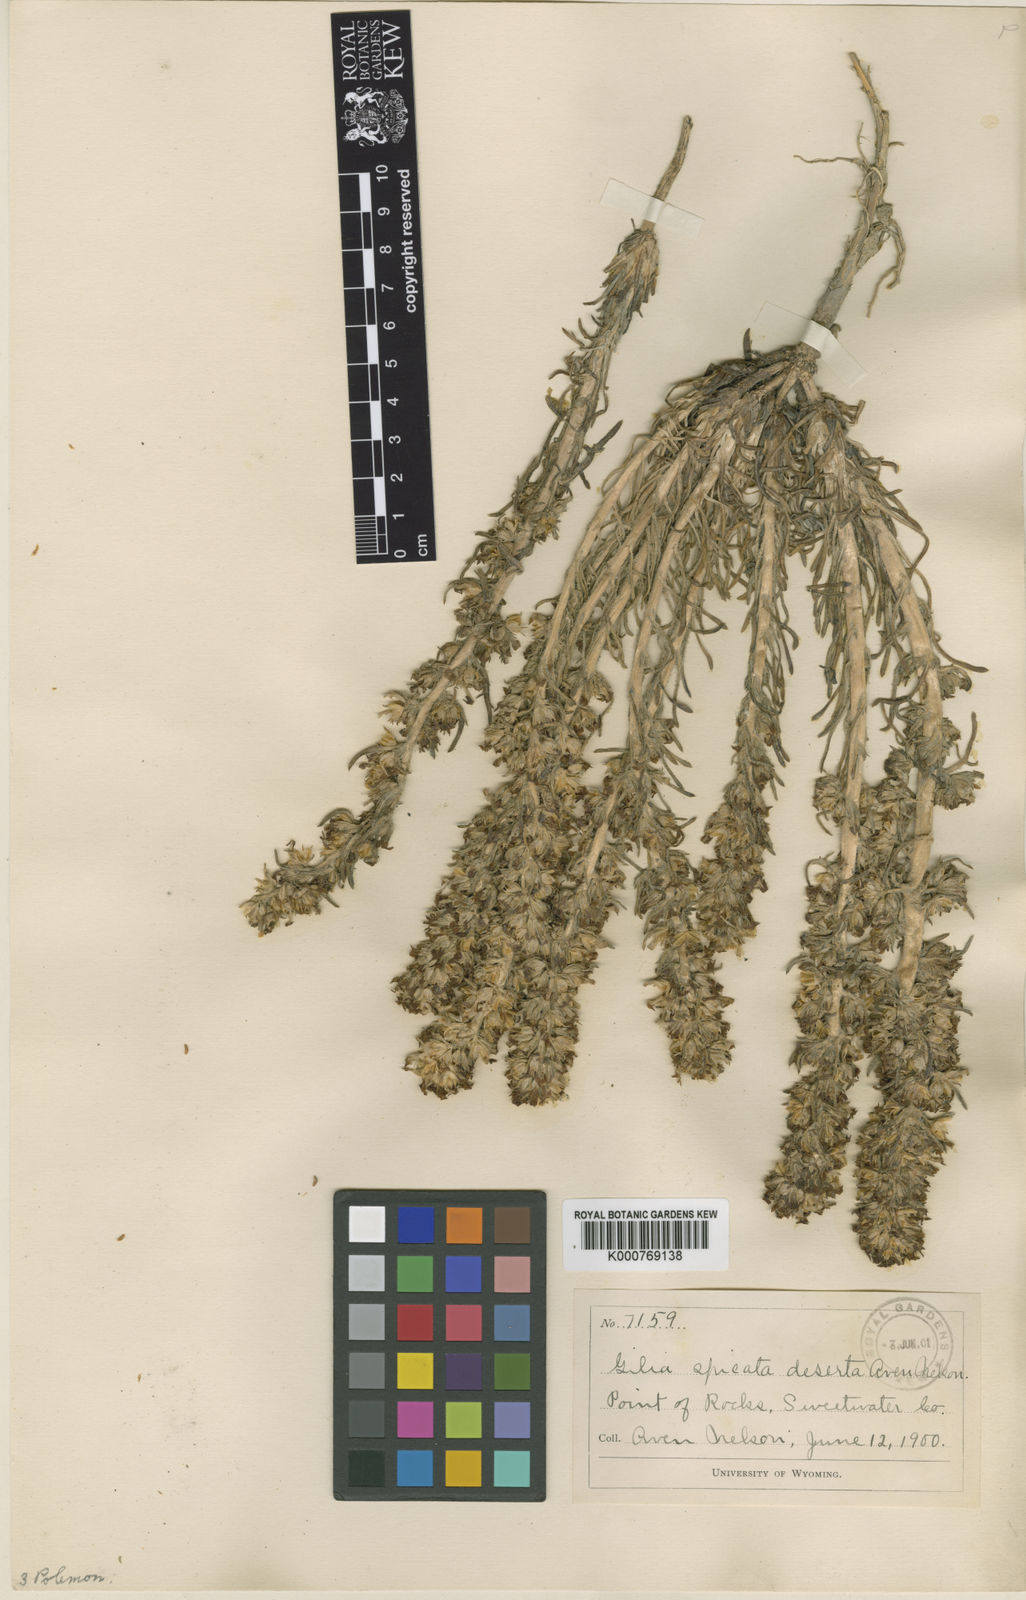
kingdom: Plantae
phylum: Tracheophyta
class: Magnoliopsida
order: Ericales
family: Polemoniaceae
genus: Ipomopsis
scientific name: Ipomopsis spicata
